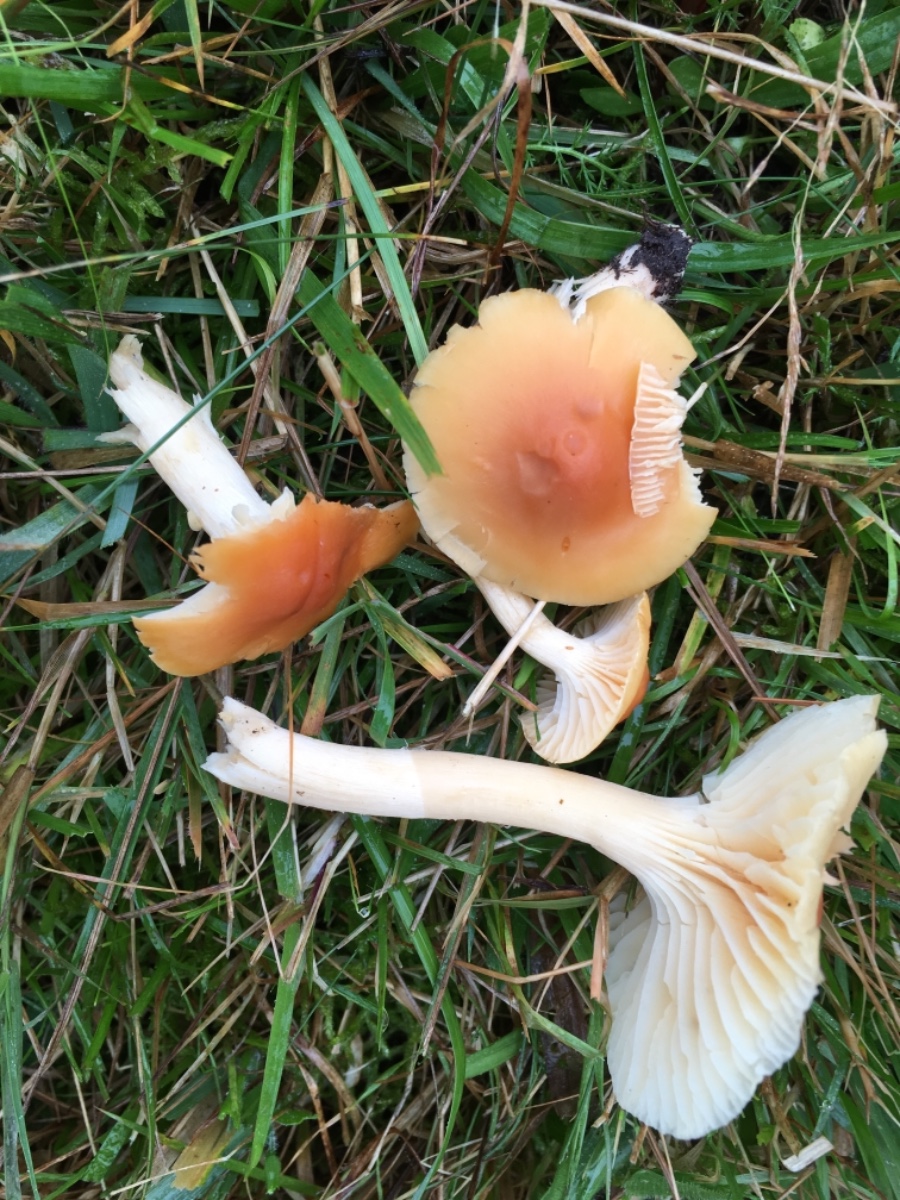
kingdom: Fungi
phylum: Basidiomycota
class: Agaricomycetes
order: Agaricales
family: Hygrophoraceae
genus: Cuphophyllus
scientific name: Cuphophyllus pratensis
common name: eng-vokshat
